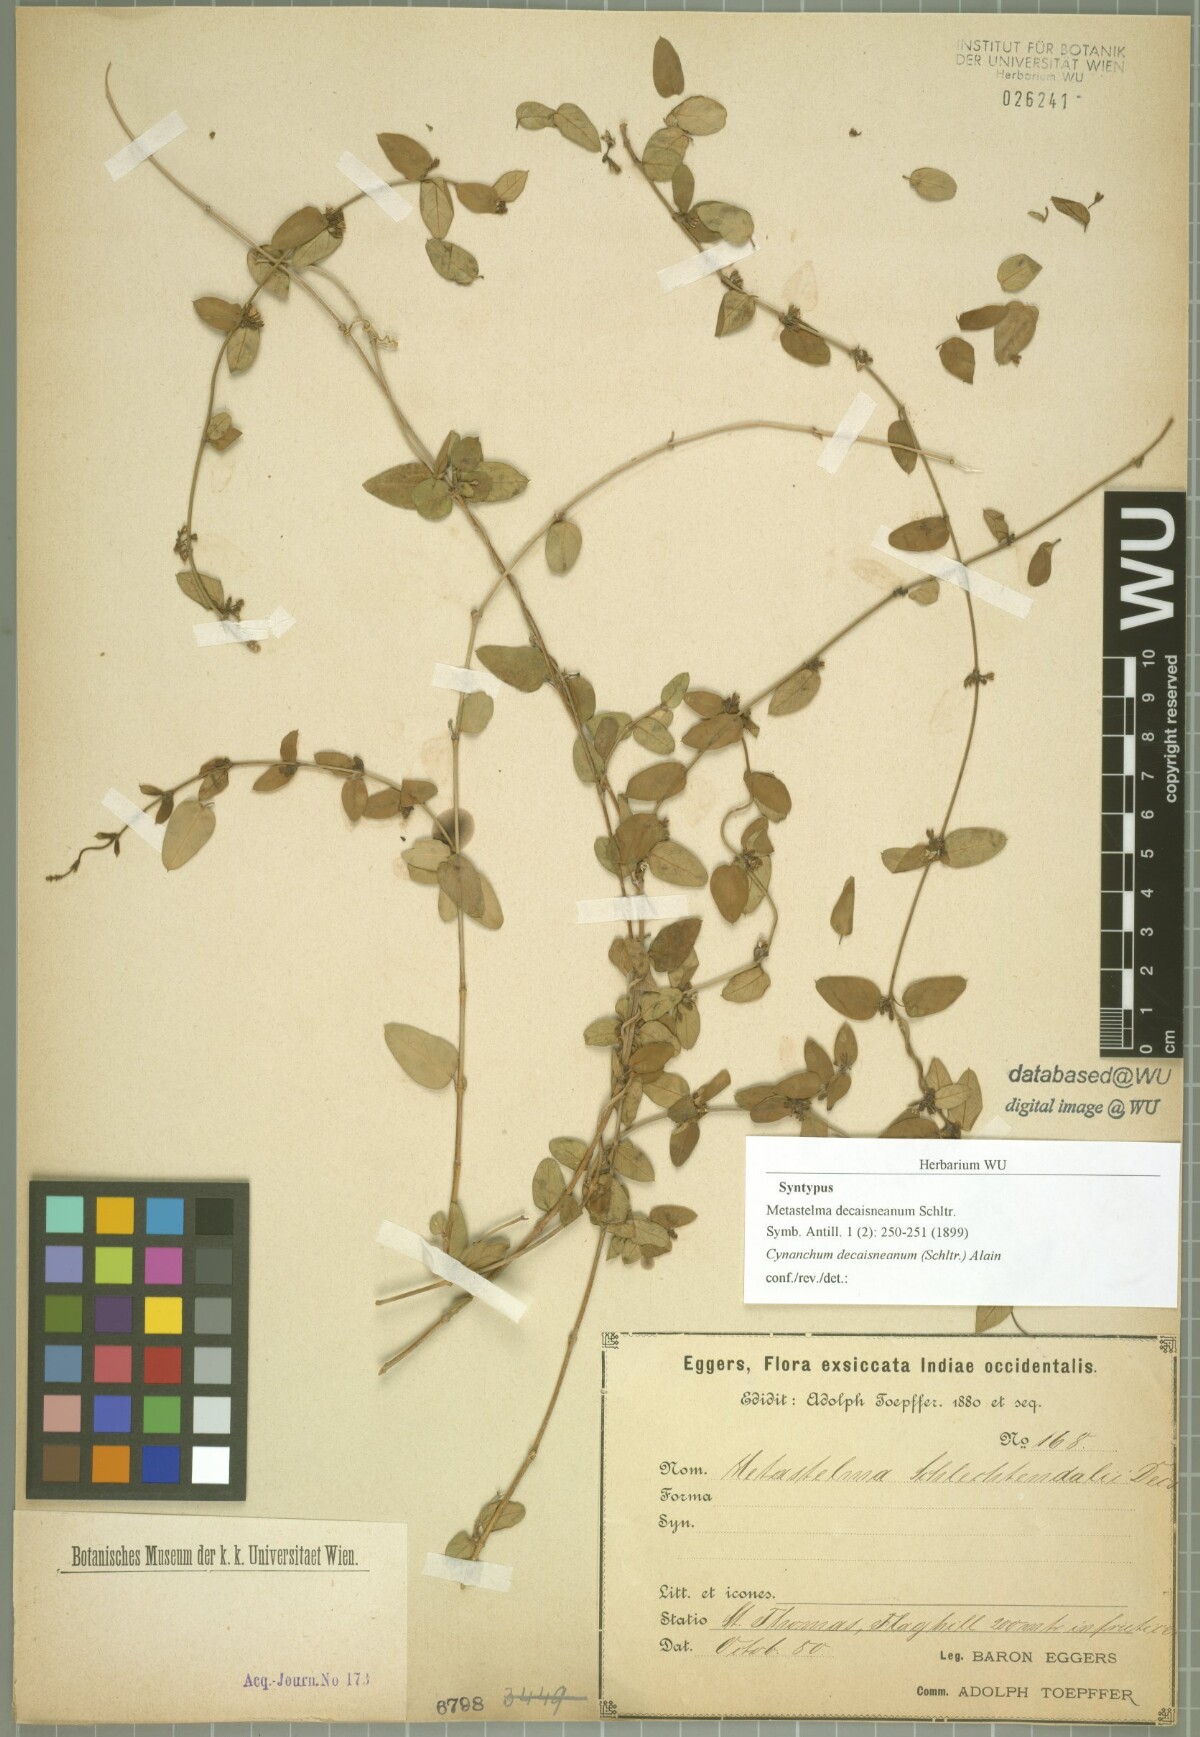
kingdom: Plantae
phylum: Tracheophyta
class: Magnoliopsida
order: Gentianales
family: Apocynaceae
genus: Metastelma
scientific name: Metastelma decipiens
